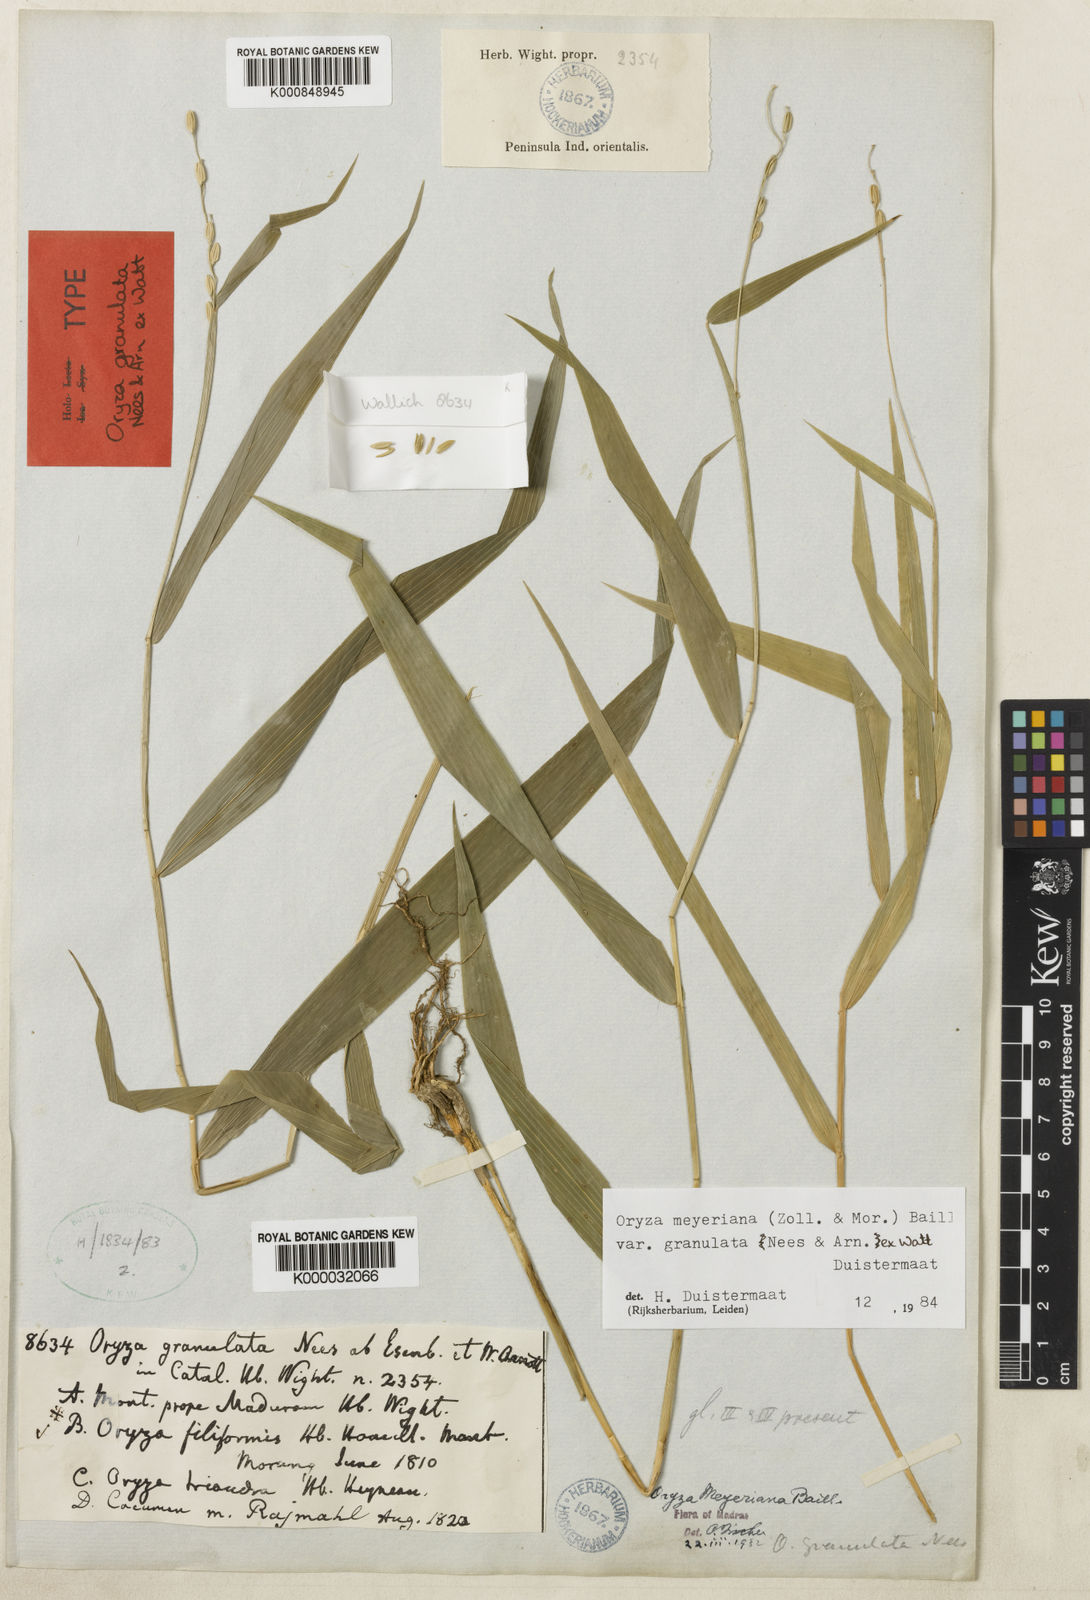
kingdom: Plantae
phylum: Tracheophyta
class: Liliopsida
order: Poales
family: Poaceae
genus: Oryza
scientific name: Oryza meyeriana
